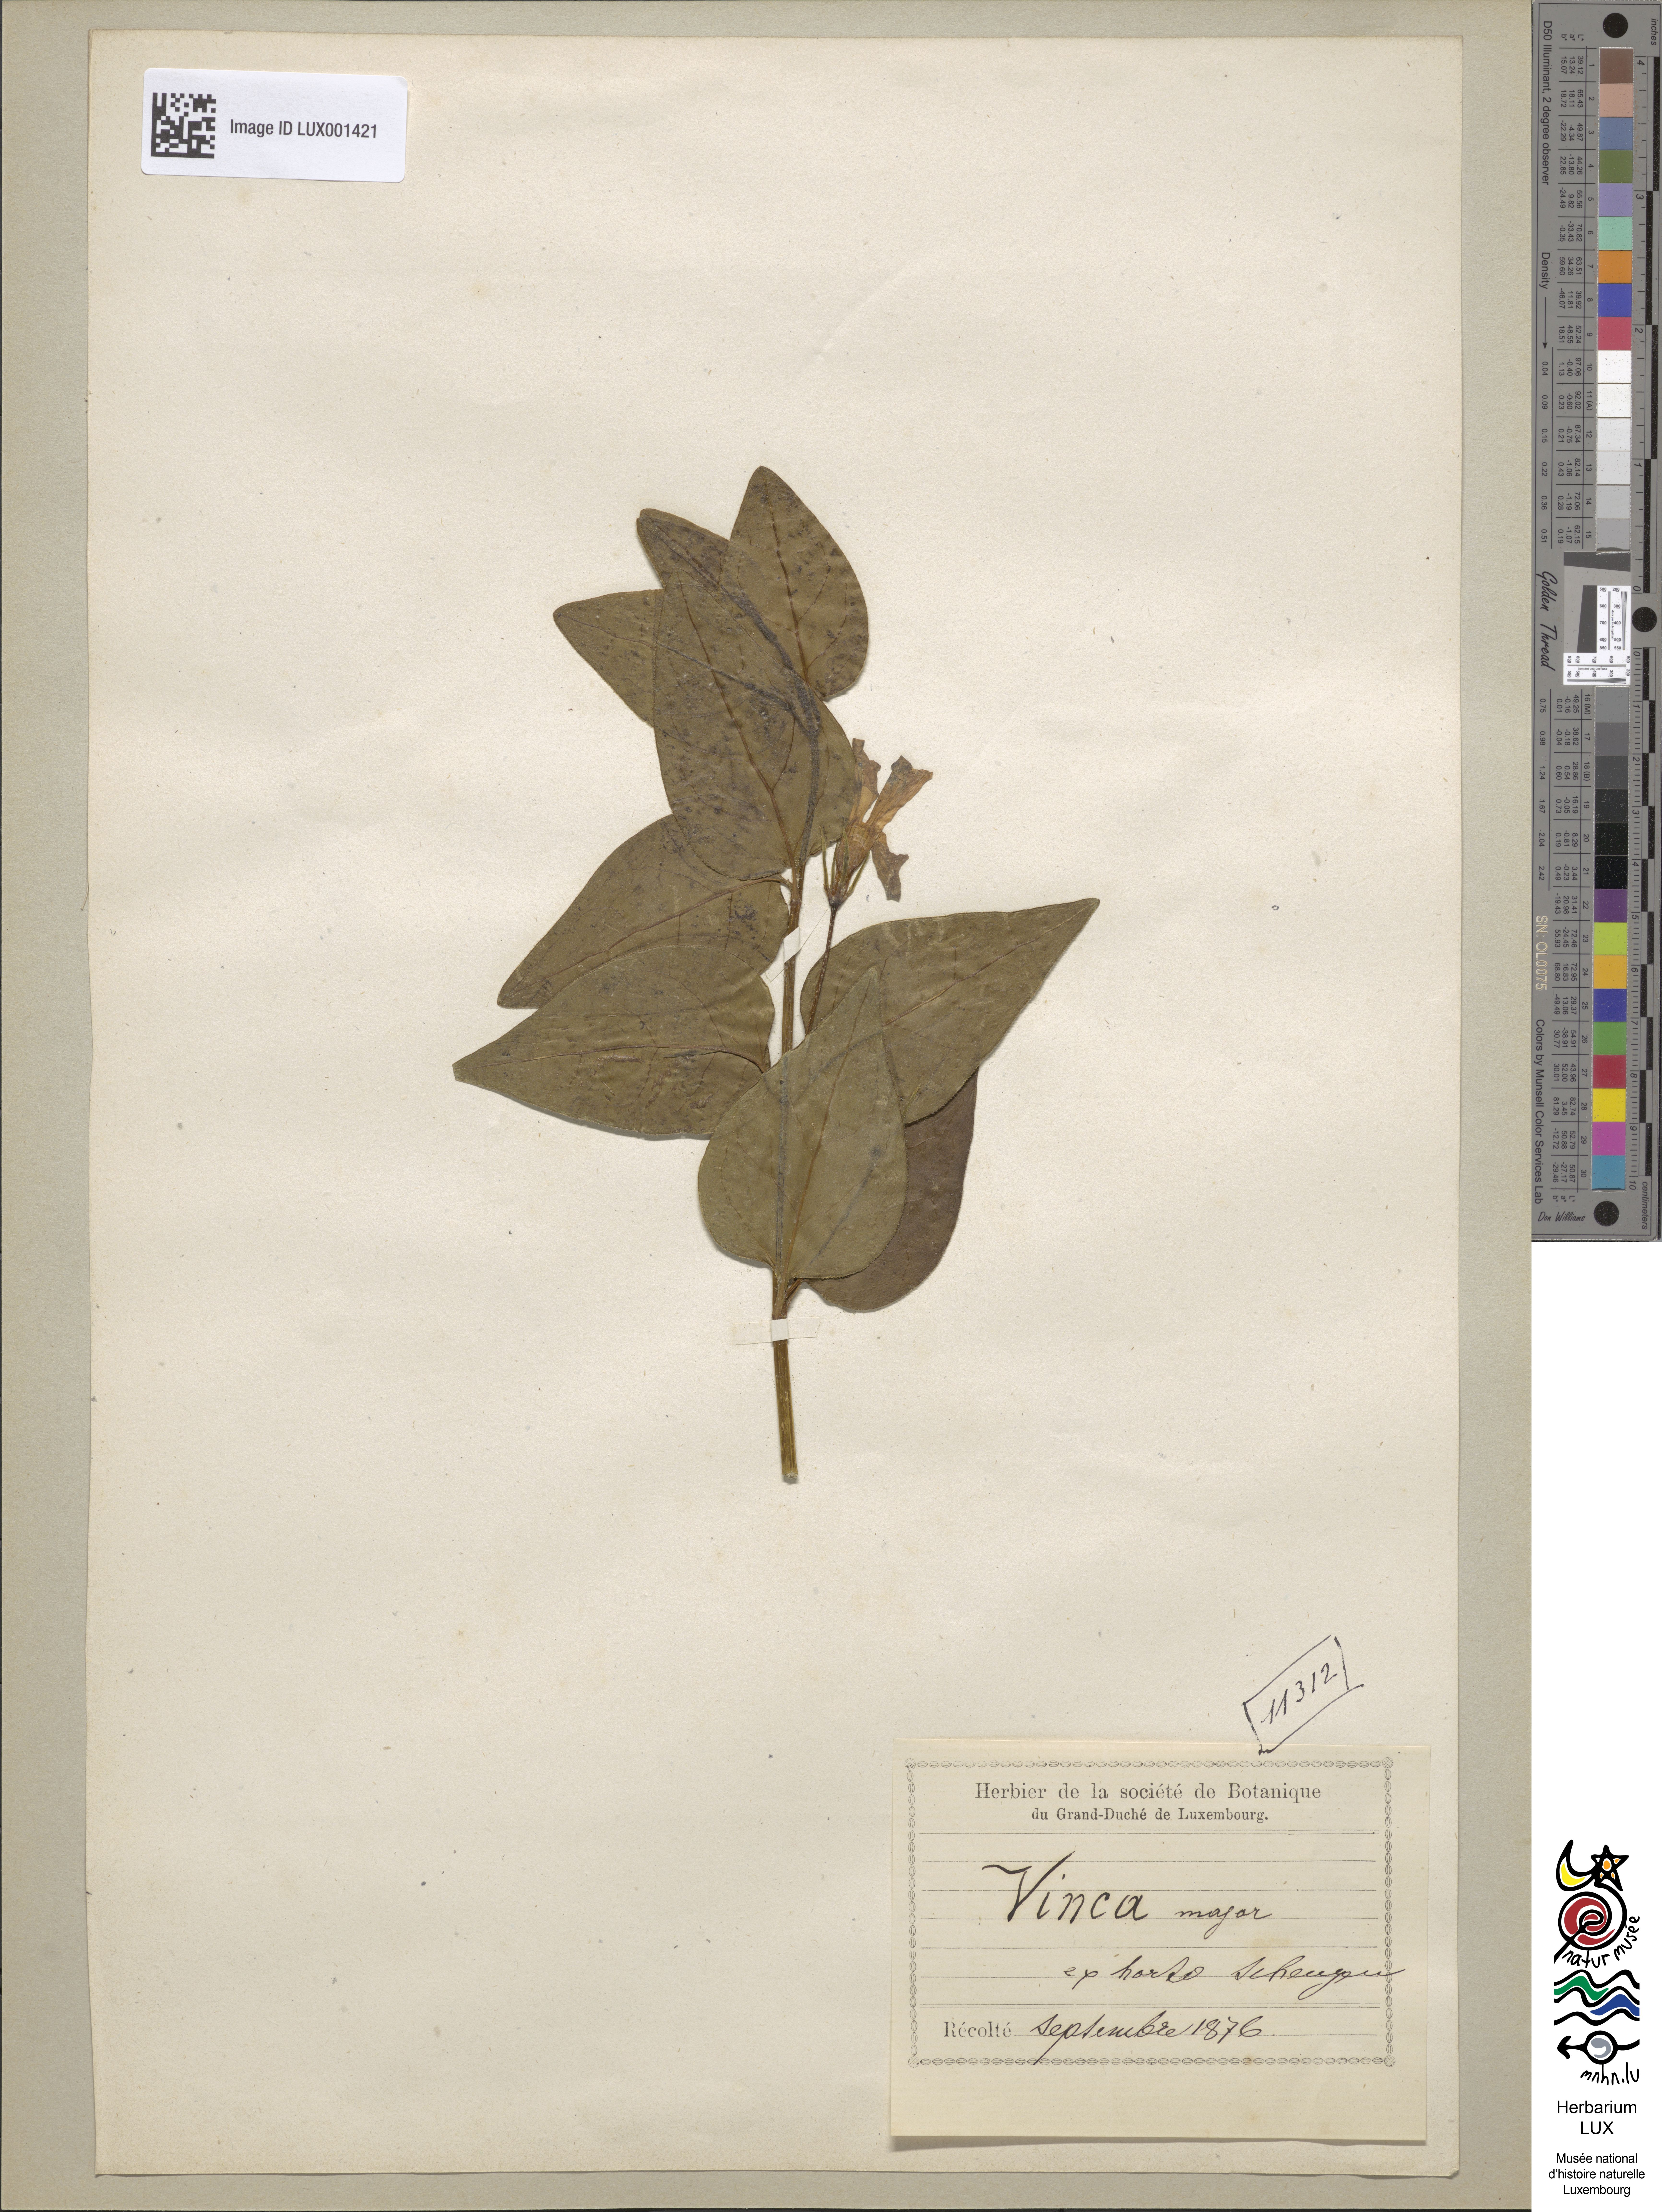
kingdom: Plantae
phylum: Tracheophyta
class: Magnoliopsida
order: Gentianales
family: Apocynaceae
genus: Vinca
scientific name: Vinca major
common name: Greater periwinkle
